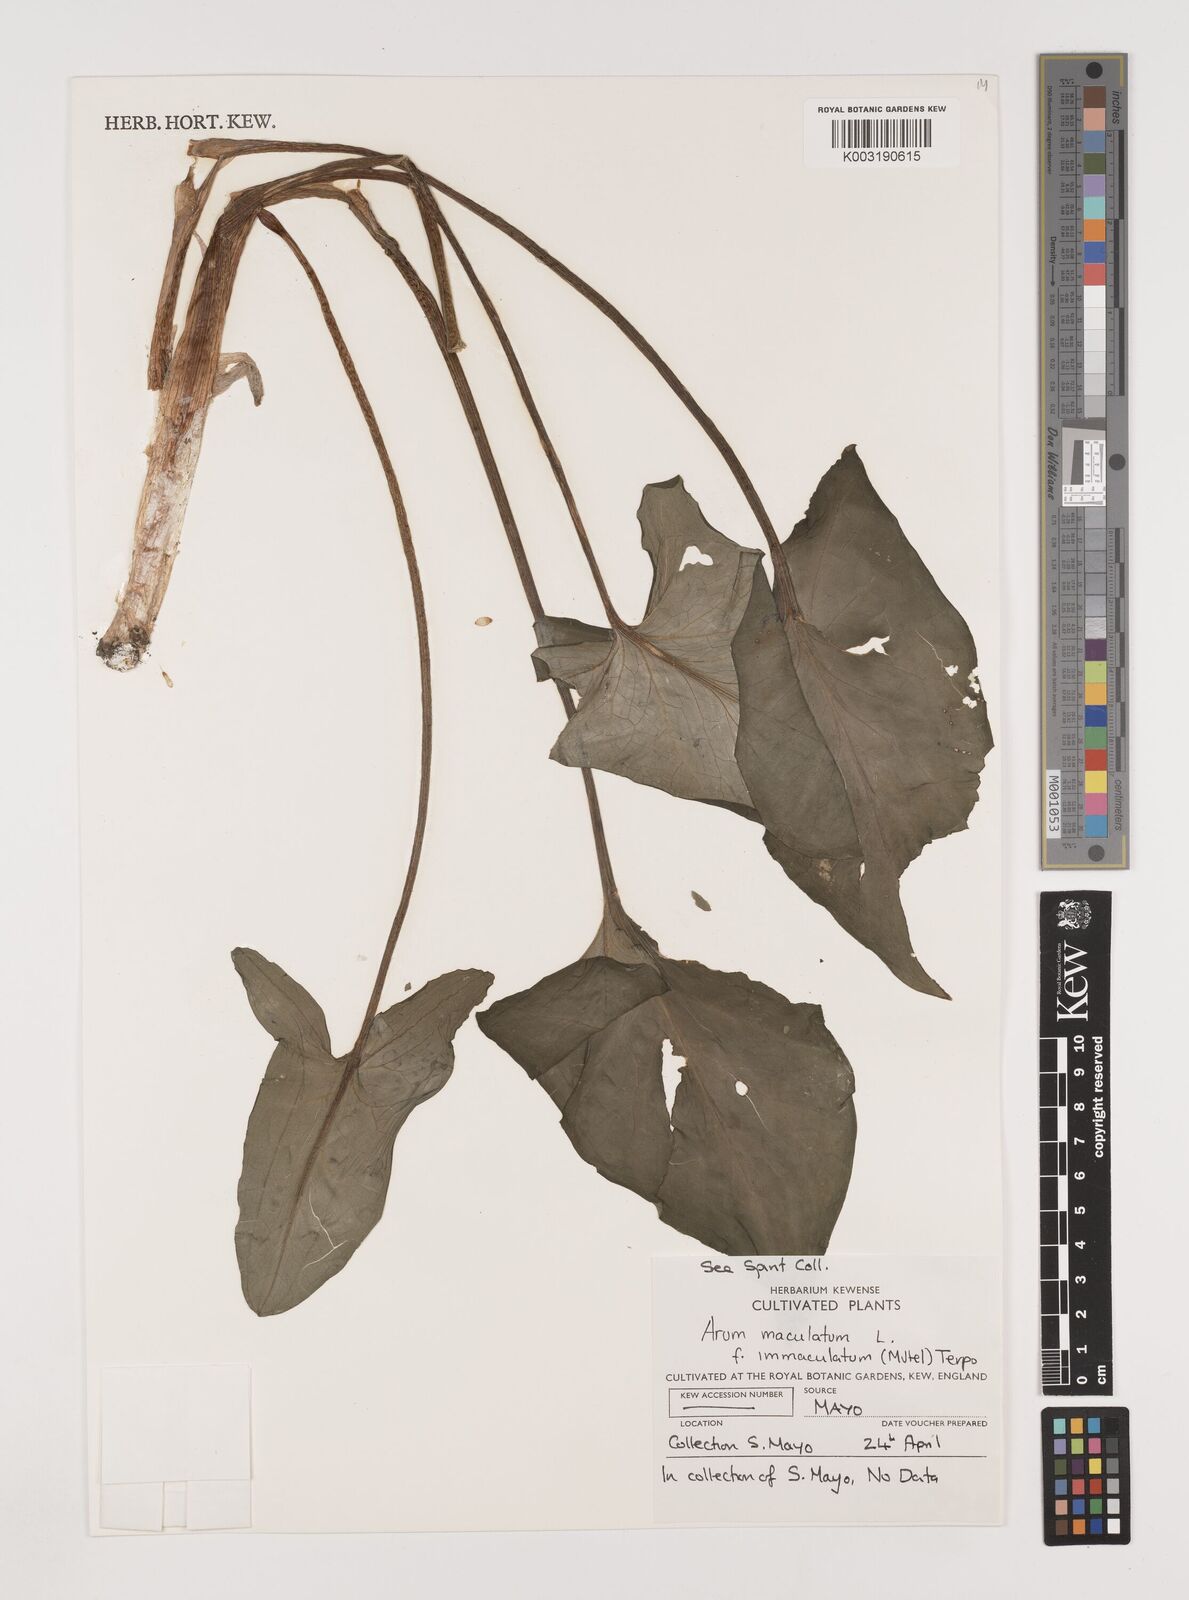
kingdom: Plantae
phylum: Tracheophyta
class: Liliopsida
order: Alismatales
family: Araceae
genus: Arum
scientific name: Arum maculatum
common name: Lords-and-ladies
